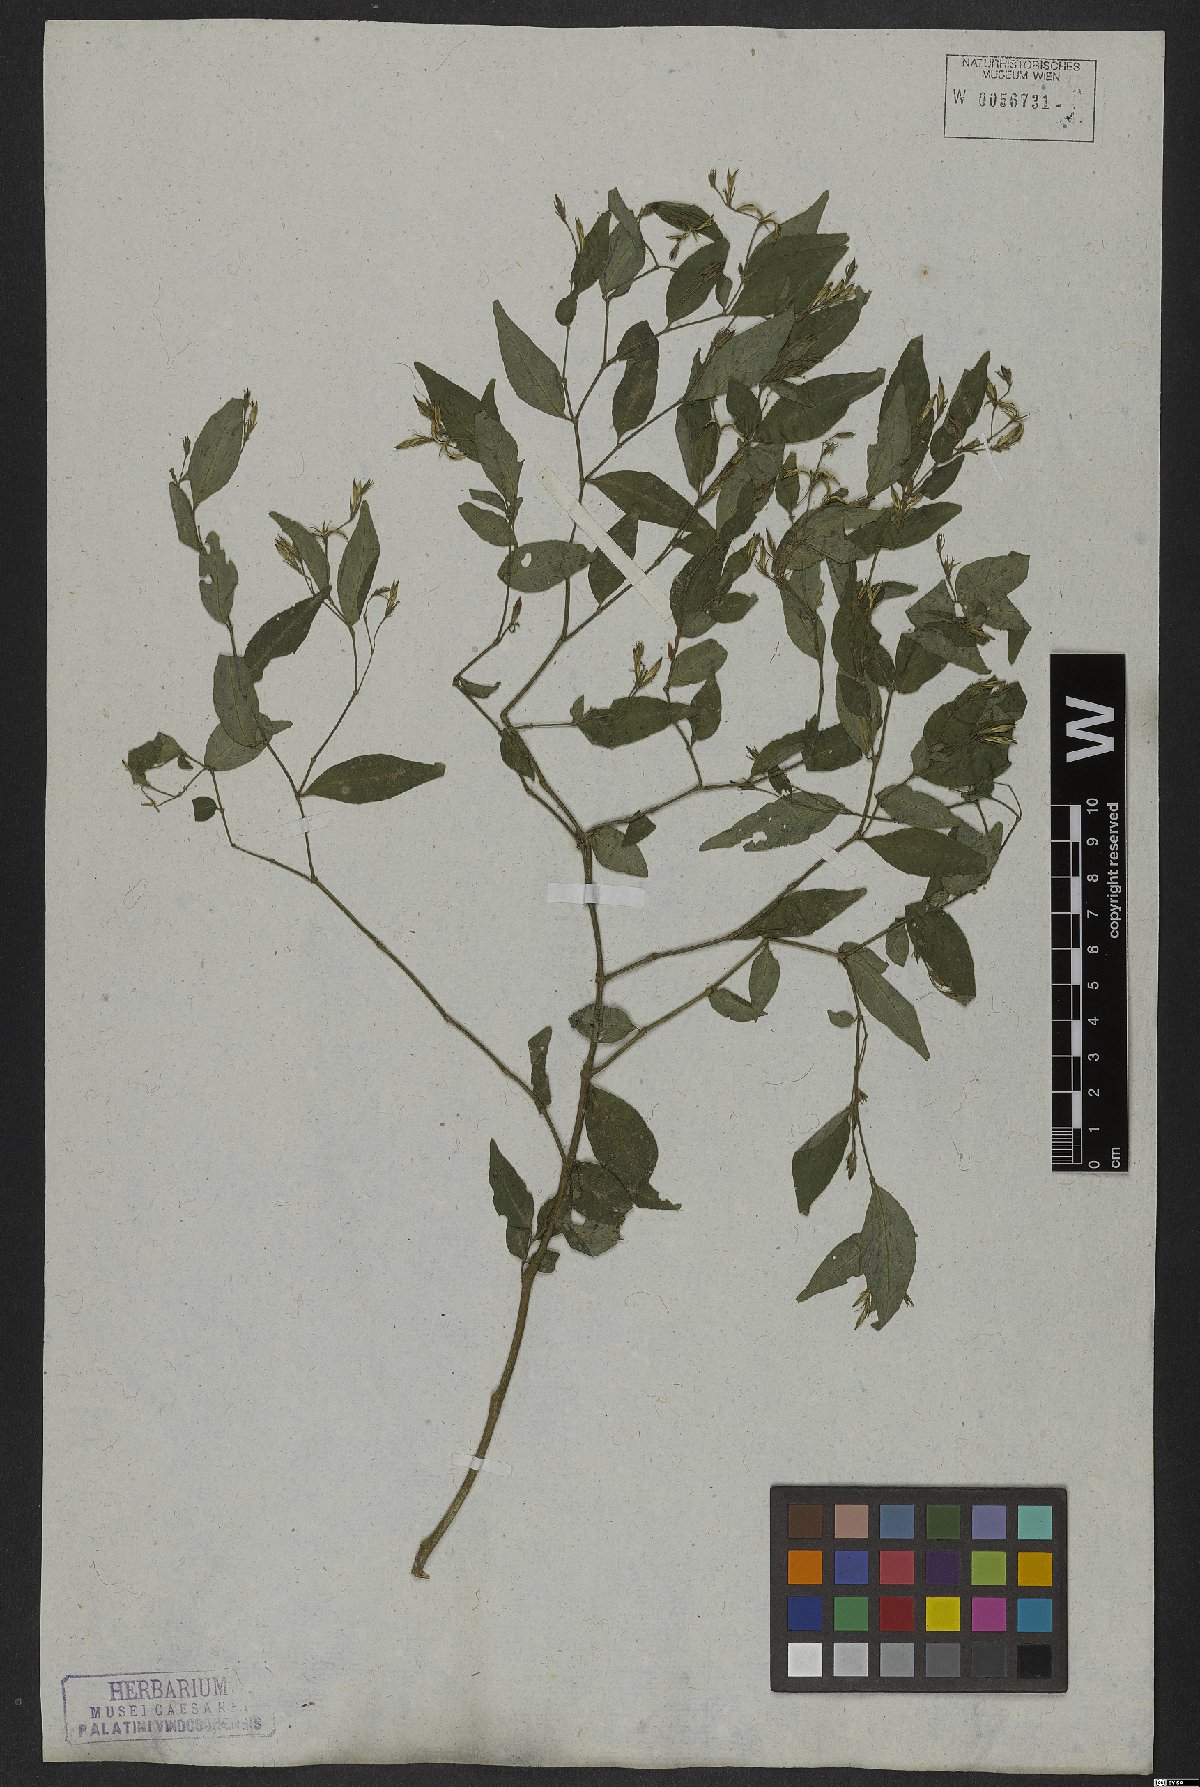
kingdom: Plantae
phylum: Tracheophyta
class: Magnoliopsida
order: Lamiales
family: Acanthaceae
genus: Justicia
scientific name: Justicia polita
